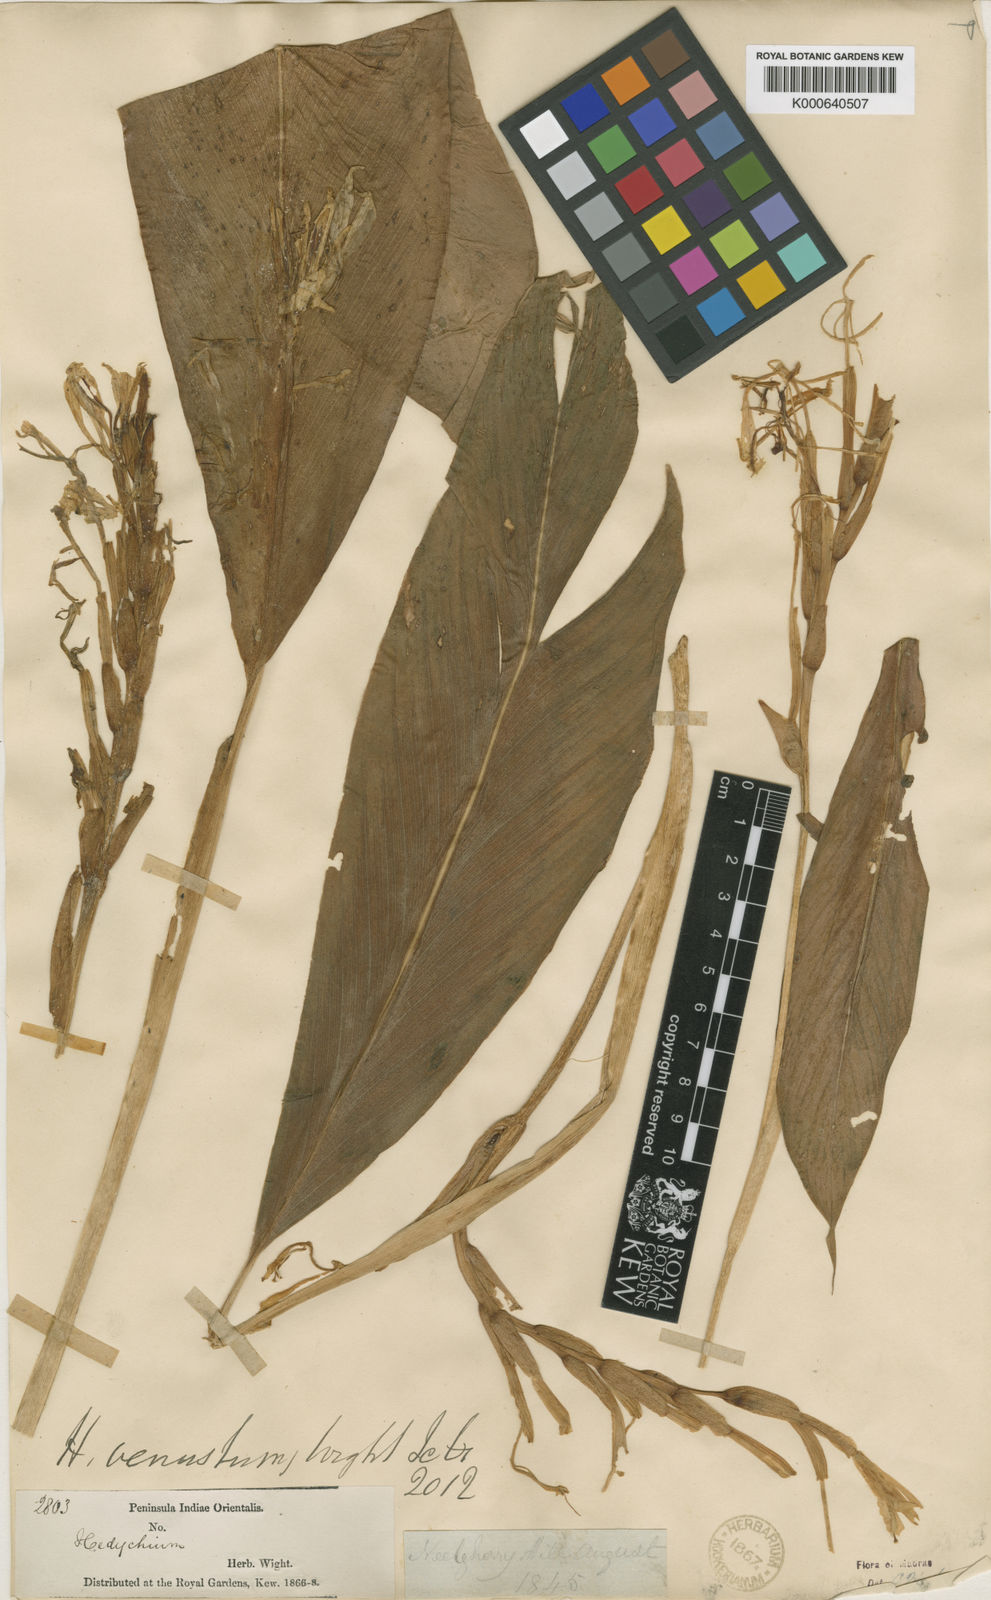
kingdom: Plantae
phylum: Tracheophyta
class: Liliopsida
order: Zingiberales
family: Zingiberaceae
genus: Hedychium
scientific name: Hedychium venustum
